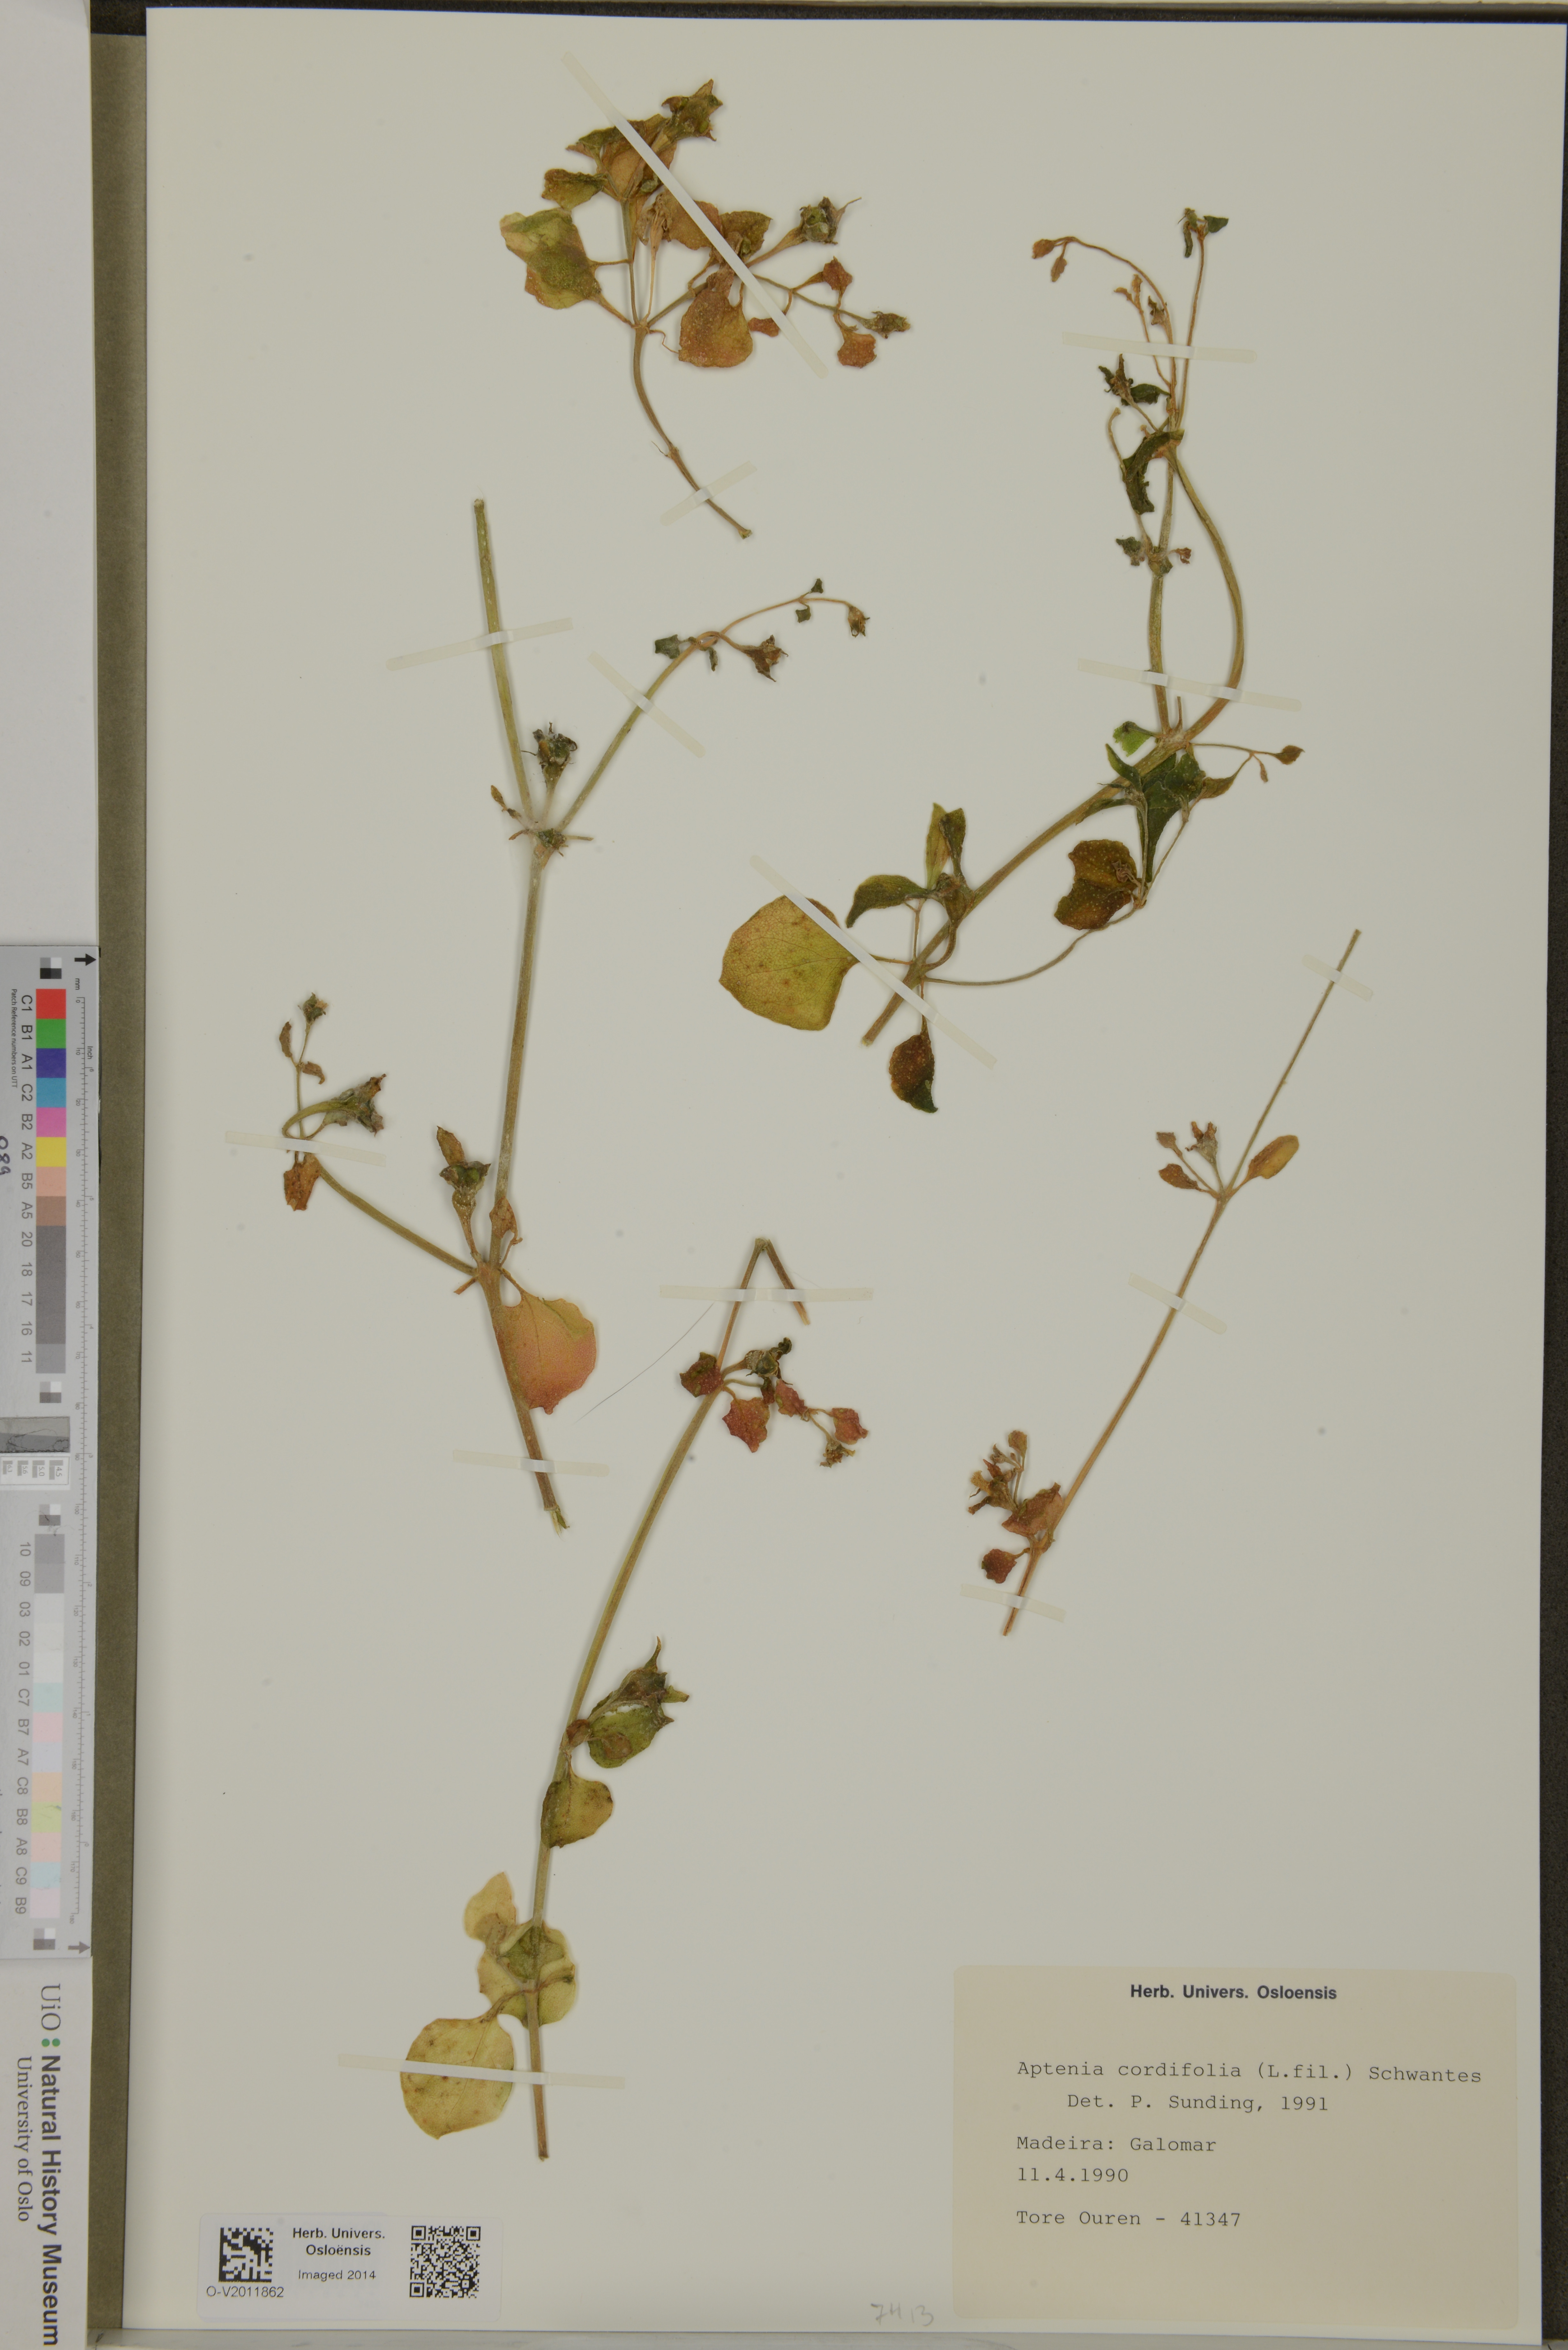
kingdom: Plantae
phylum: Tracheophyta
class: Magnoliopsida
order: Caryophyllales
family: Aizoaceae
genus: Mesembryanthemum
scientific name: Mesembryanthemum cordifolium
